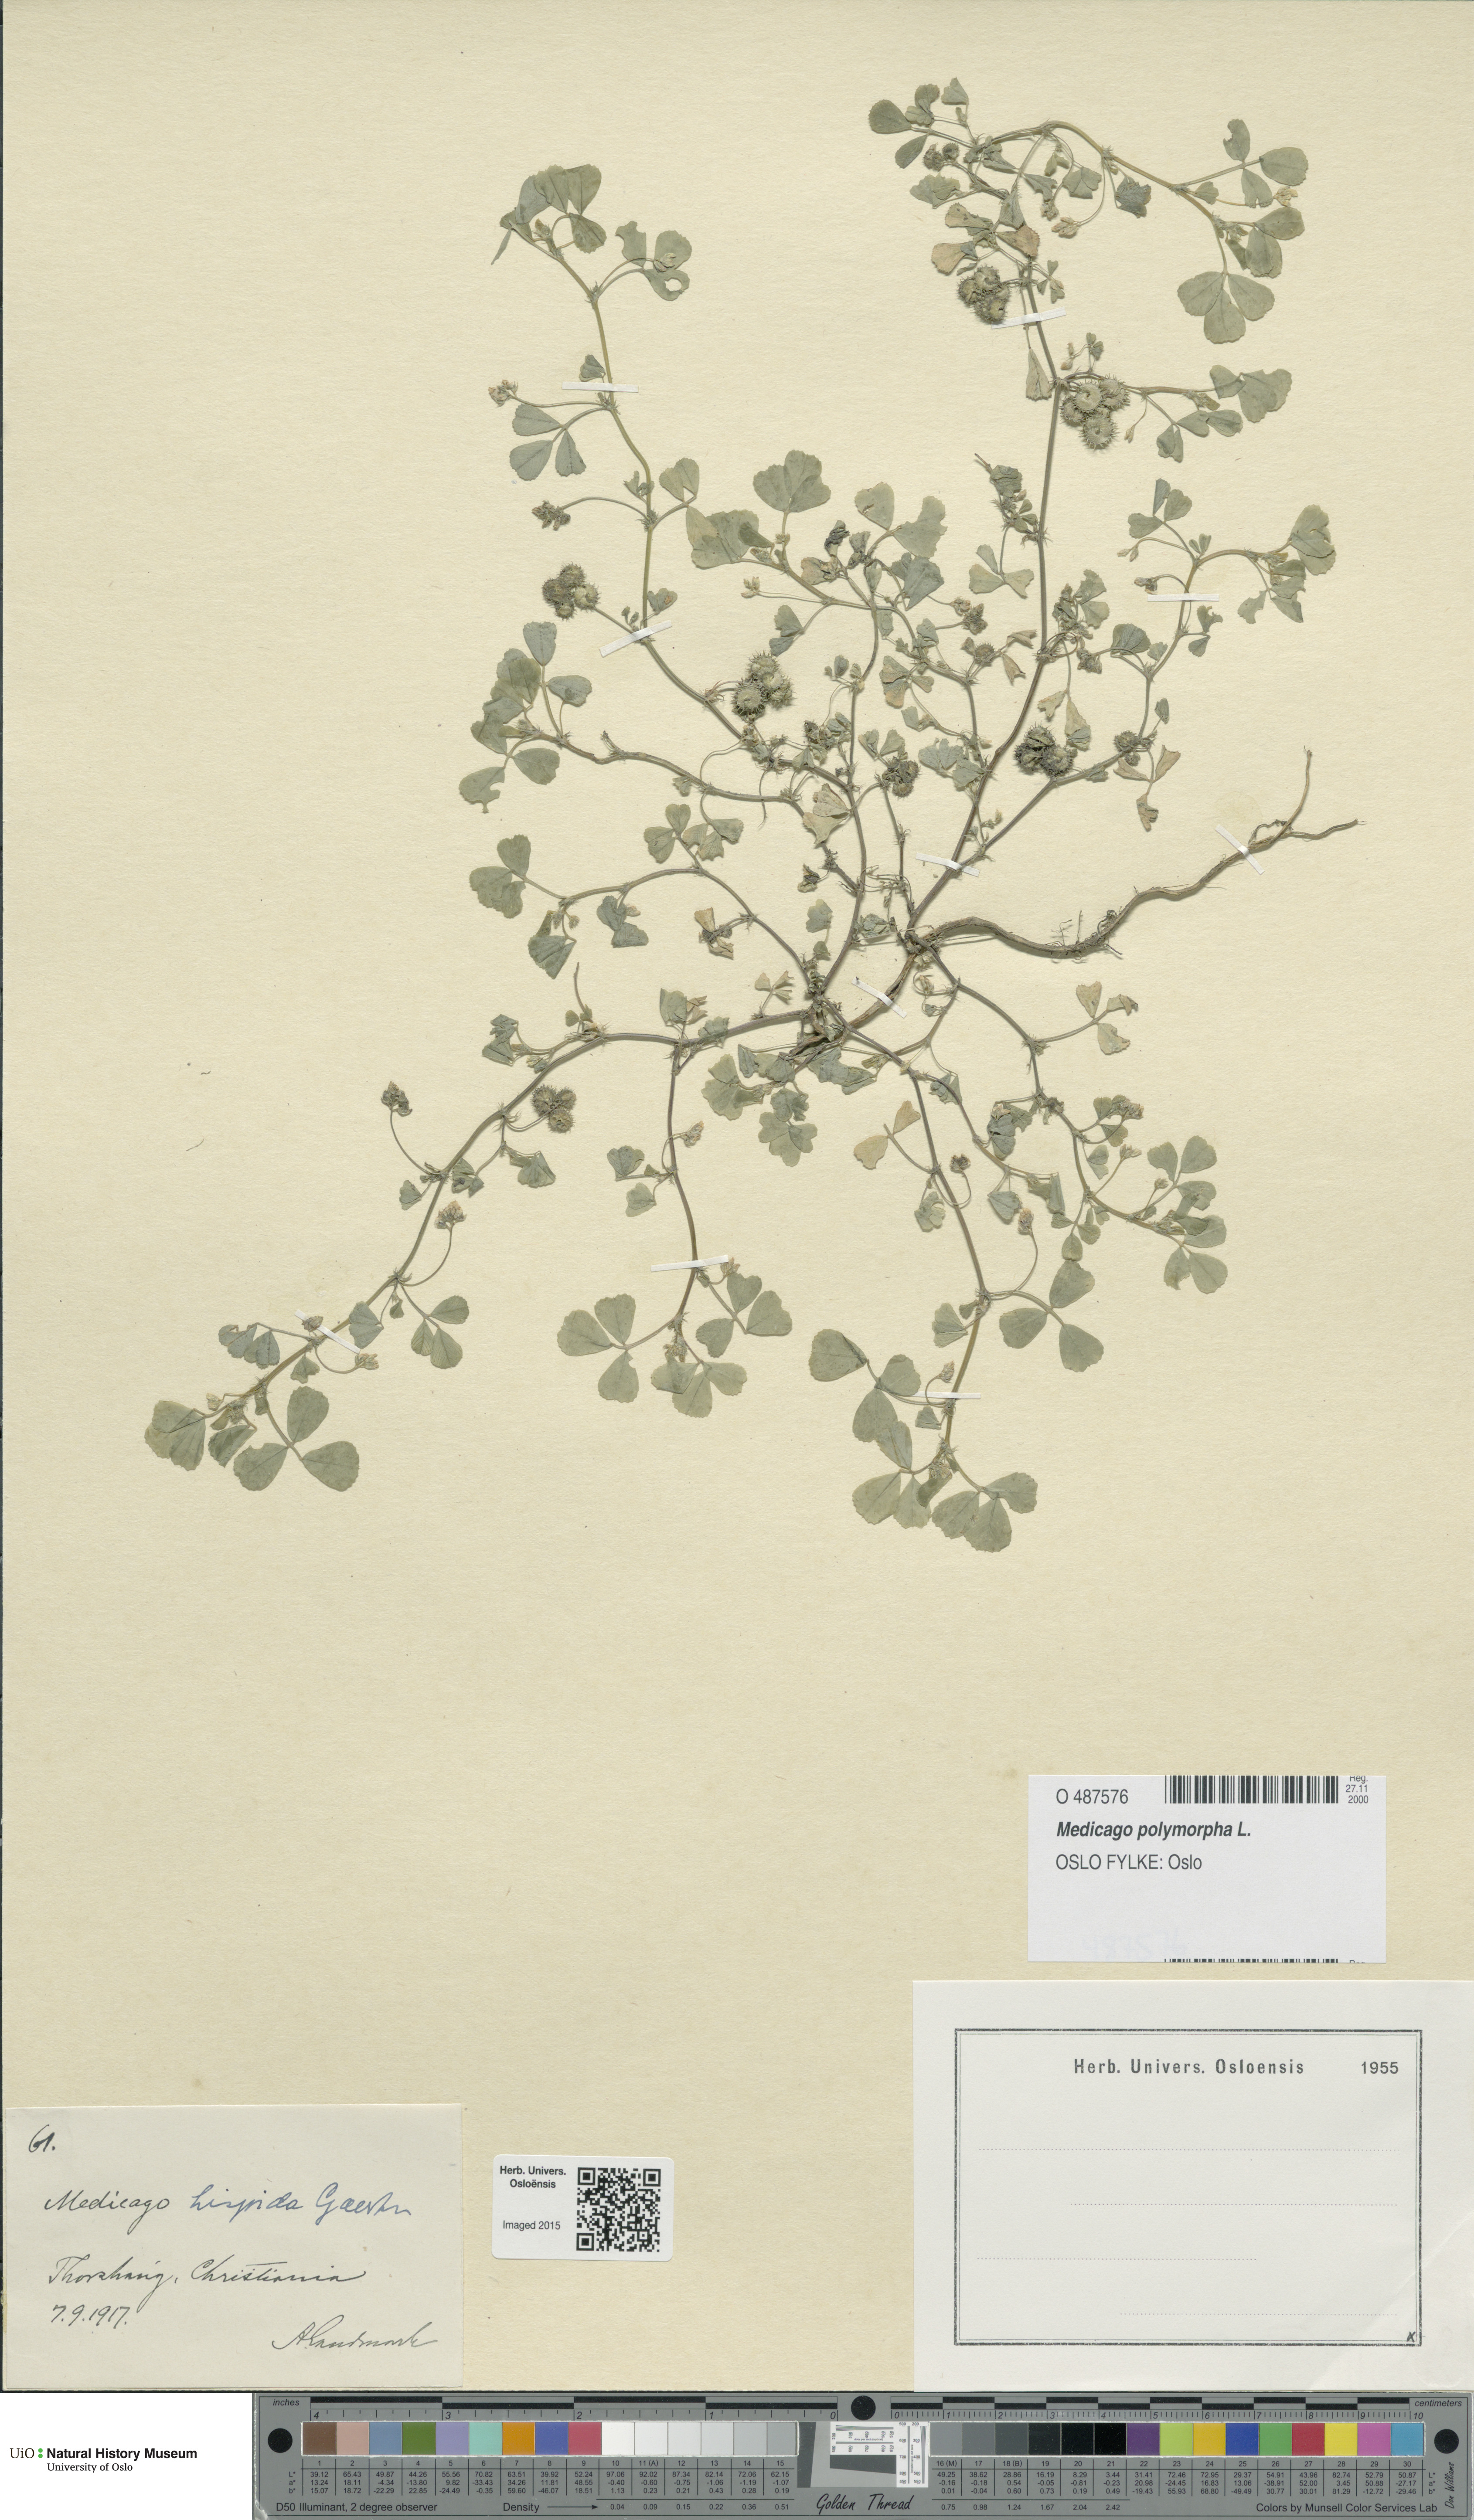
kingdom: Plantae
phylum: Tracheophyta
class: Magnoliopsida
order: Fabales
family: Fabaceae
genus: Medicago
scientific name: Medicago polymorpha
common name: Burclover
